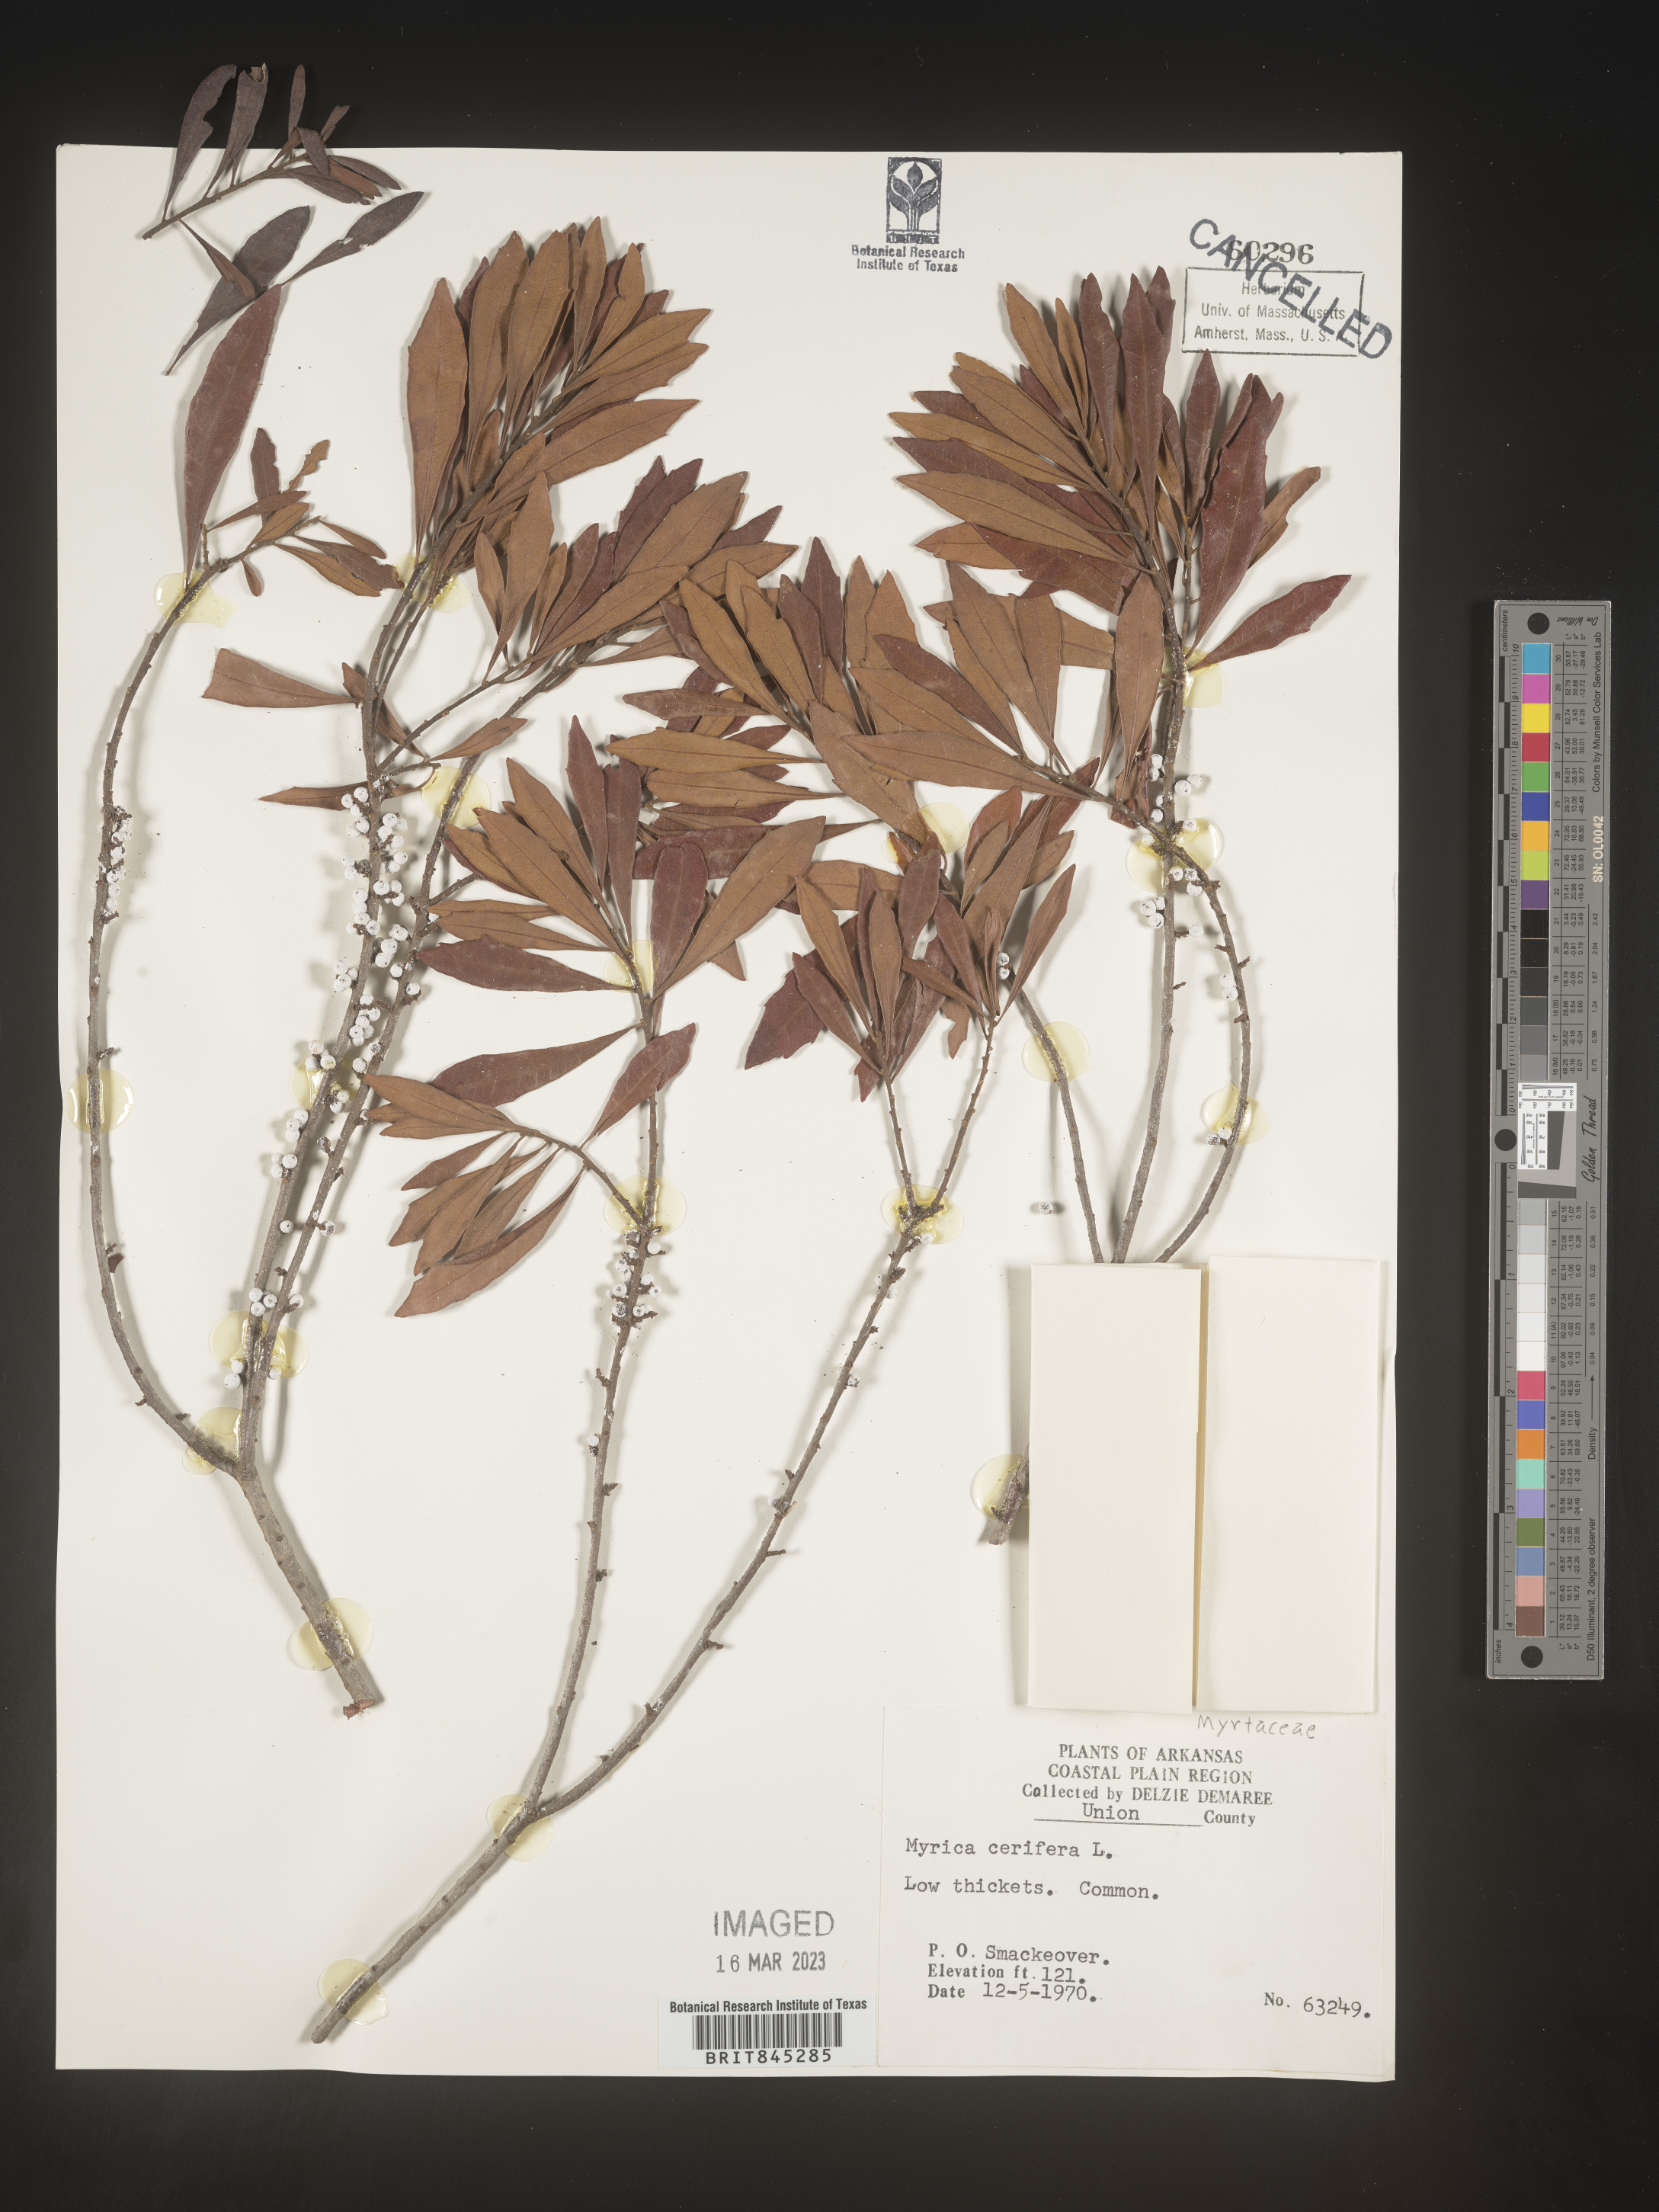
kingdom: Plantae
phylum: Tracheophyta
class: Magnoliopsida
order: Fagales
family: Myricaceae
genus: Morella
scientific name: Morella cerifera
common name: Wax myrtle
